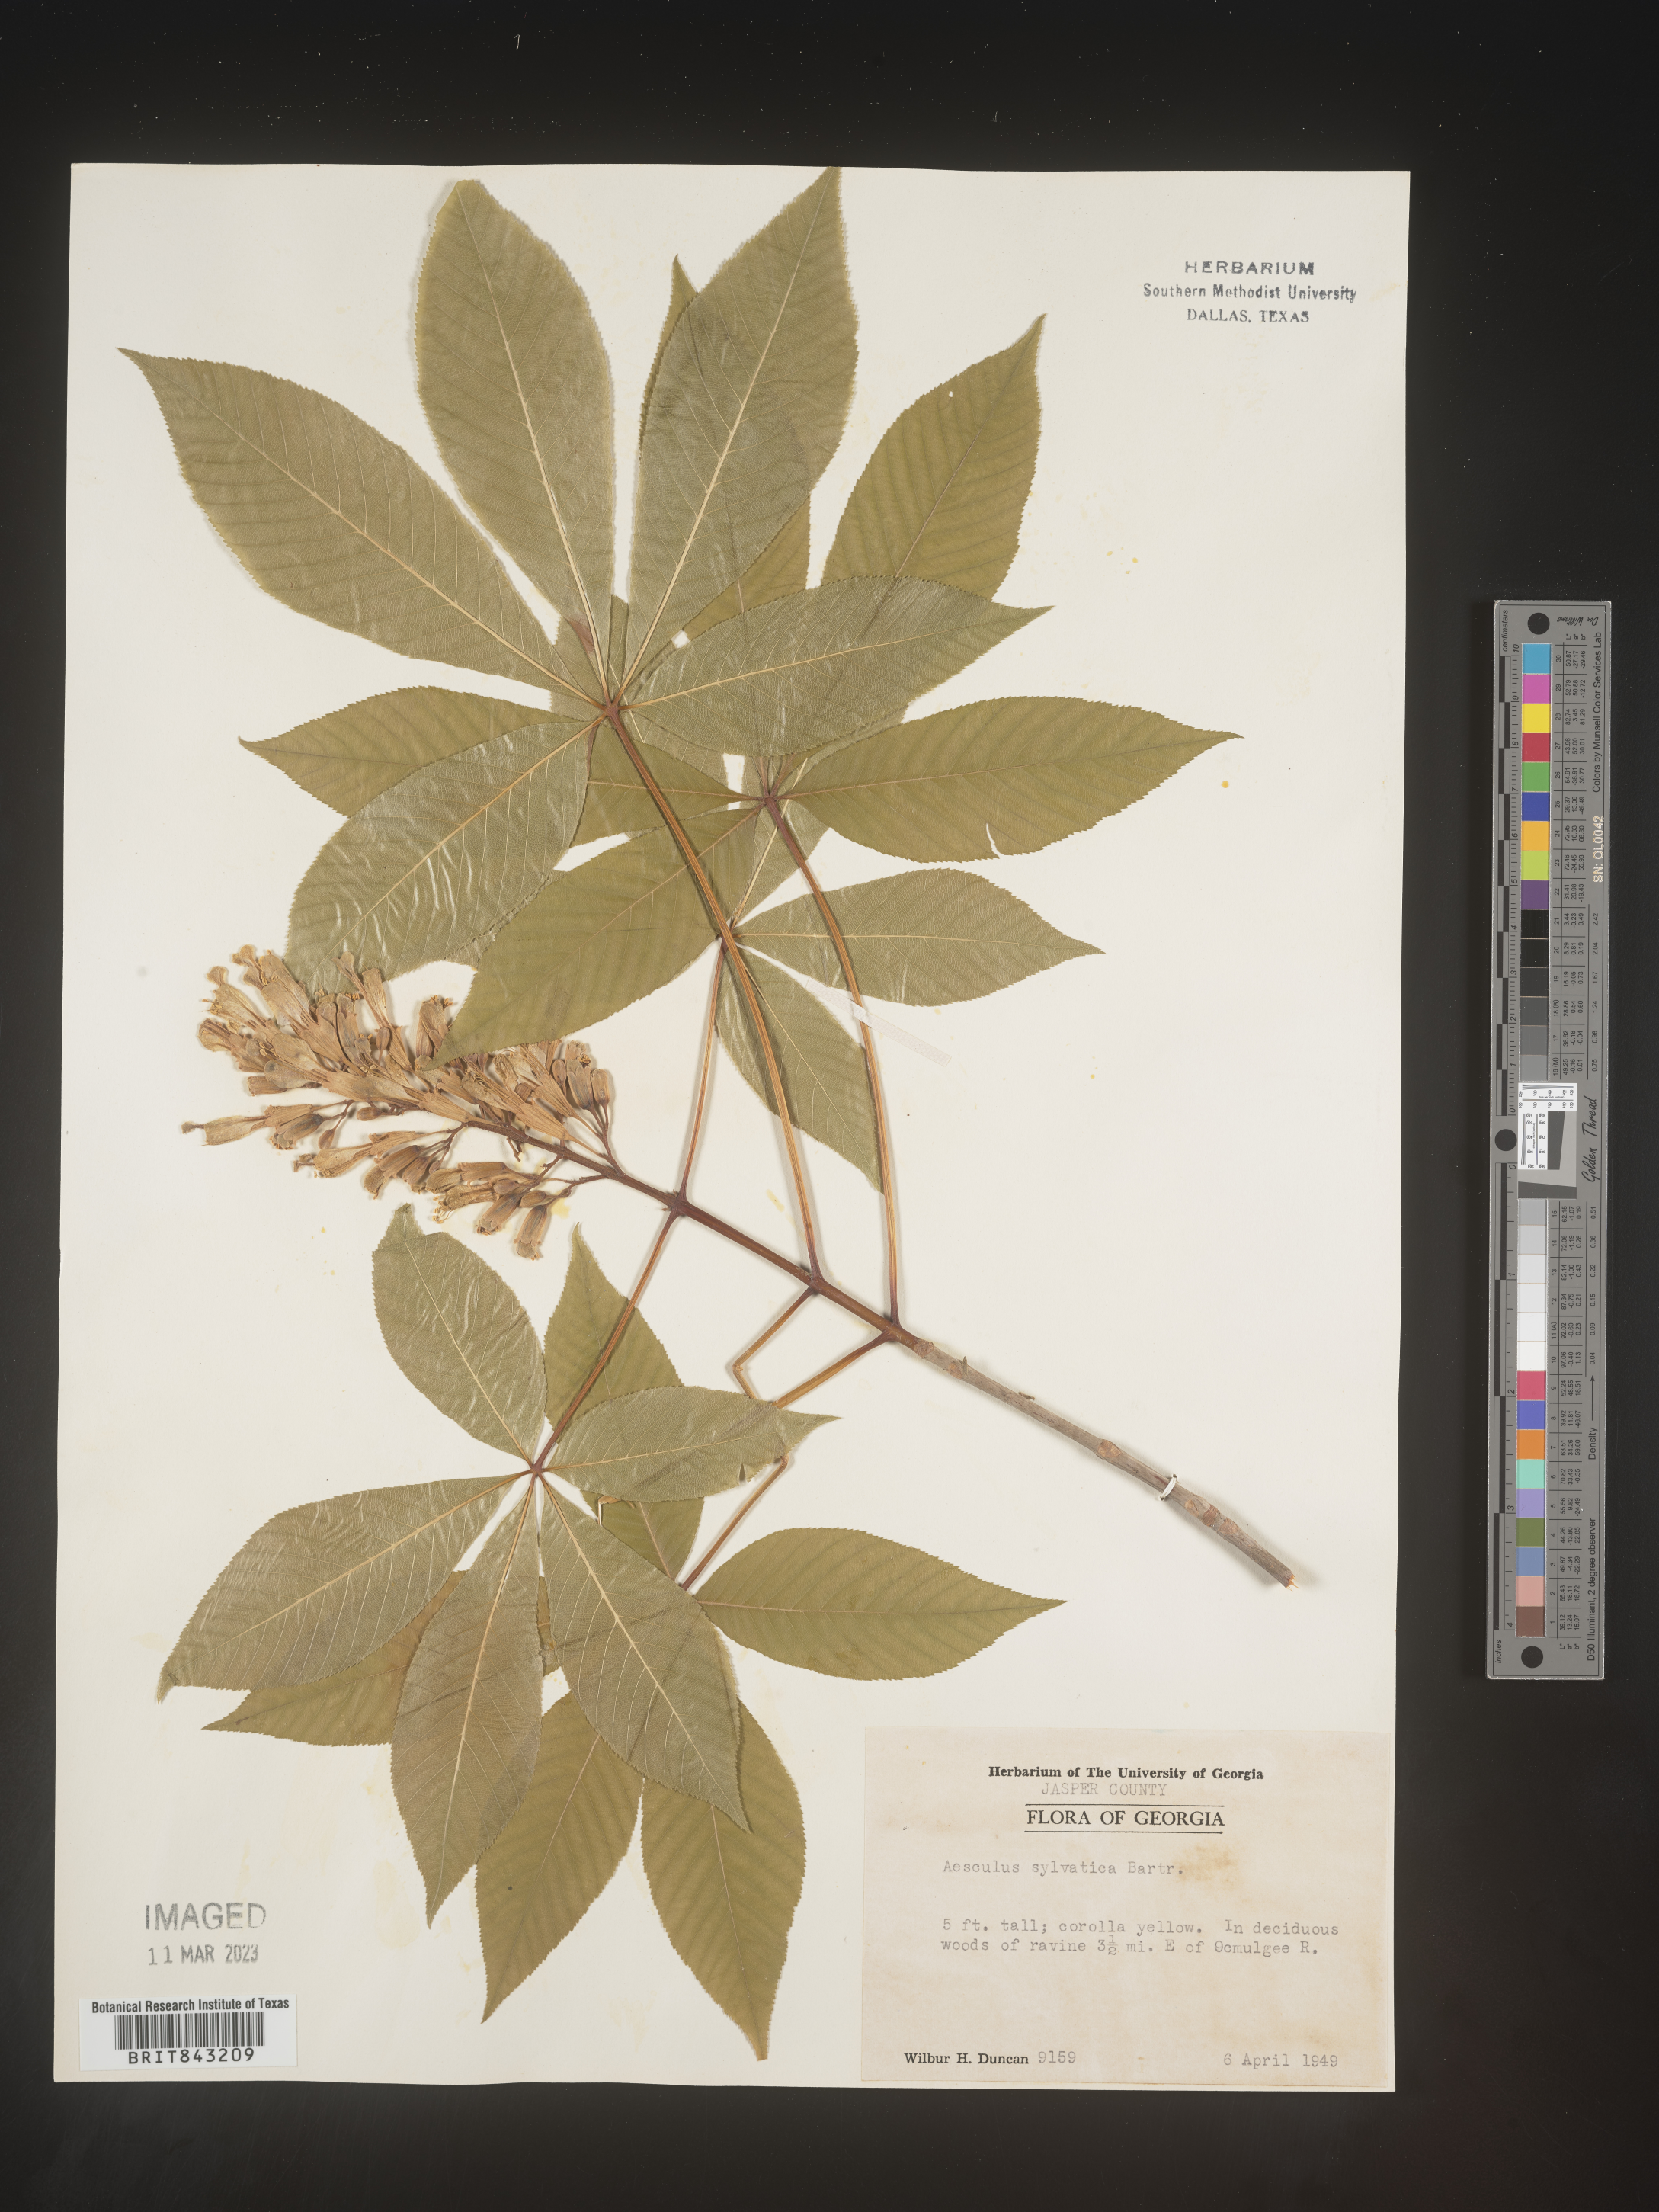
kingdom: Plantae
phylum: Tracheophyta
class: Magnoliopsida
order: Sapindales
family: Sapindaceae
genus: Aesculus
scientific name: Aesculus
